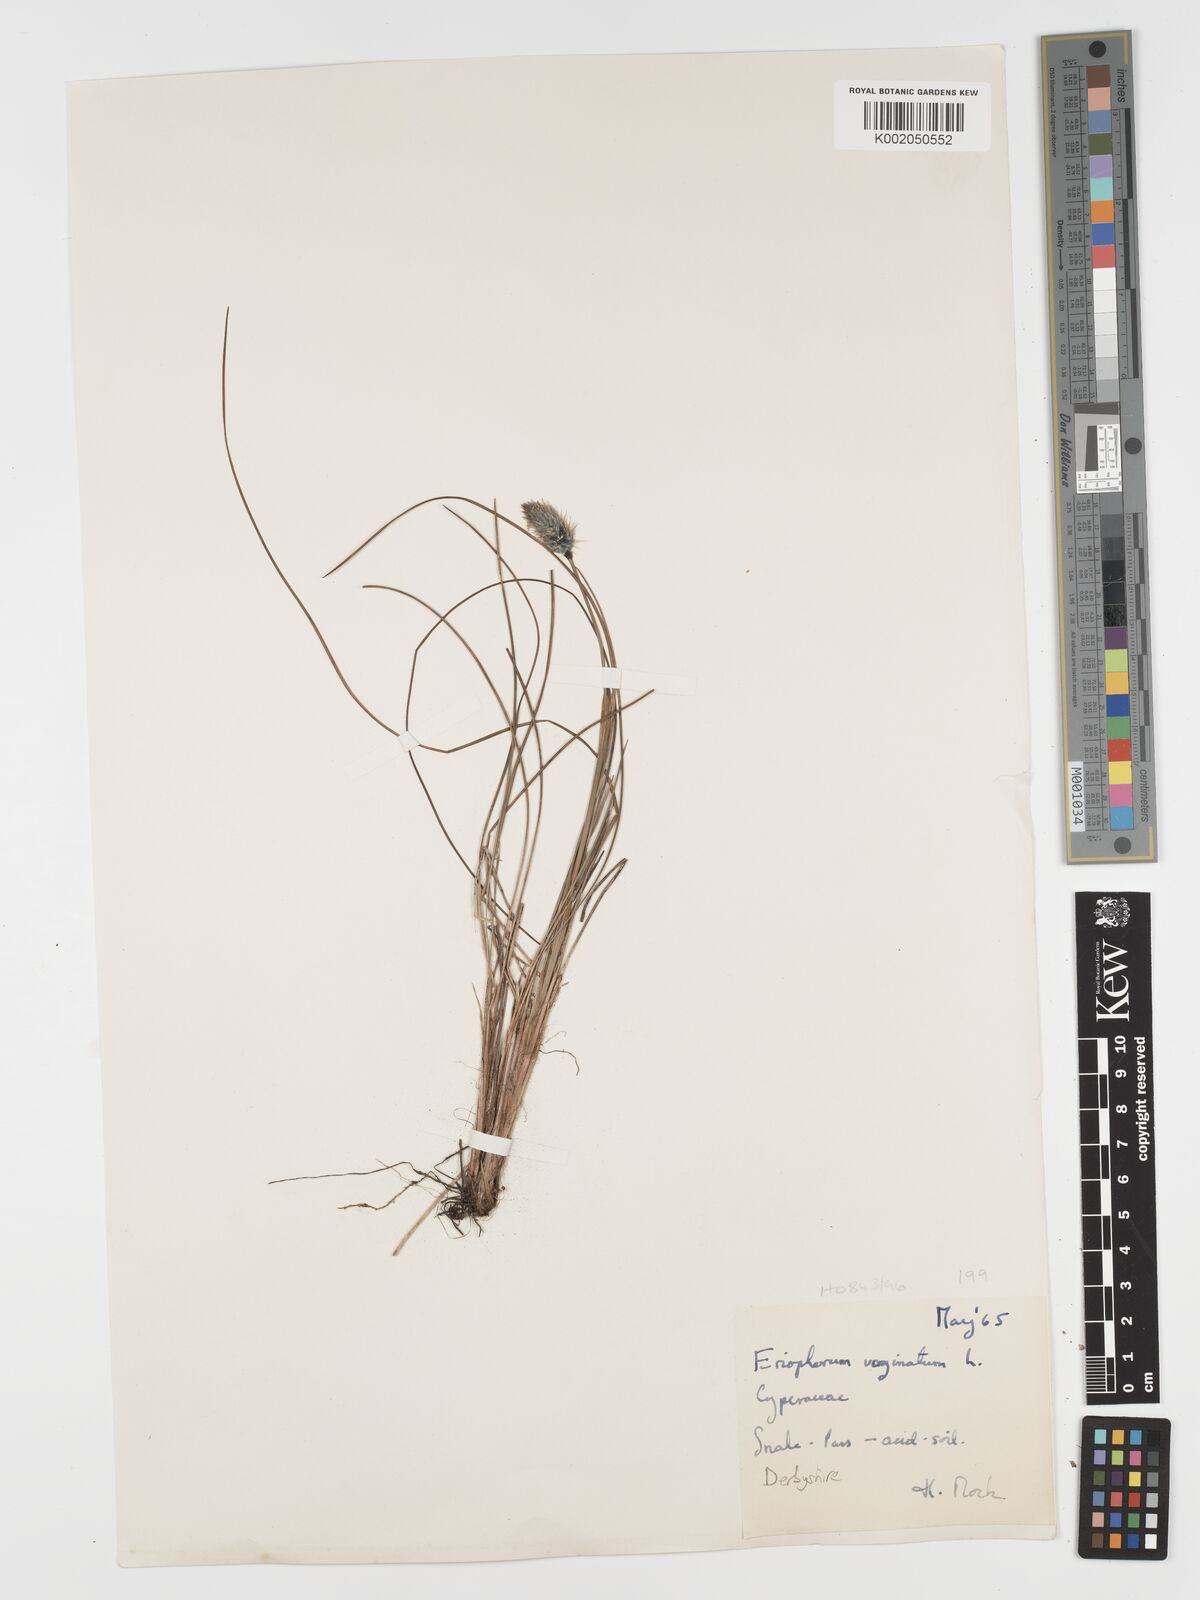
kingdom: Plantae
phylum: Tracheophyta
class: Liliopsida
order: Poales
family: Cyperaceae
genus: Eriophorum
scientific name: Eriophorum vaginatum
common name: Hare's-tail cottongrass
